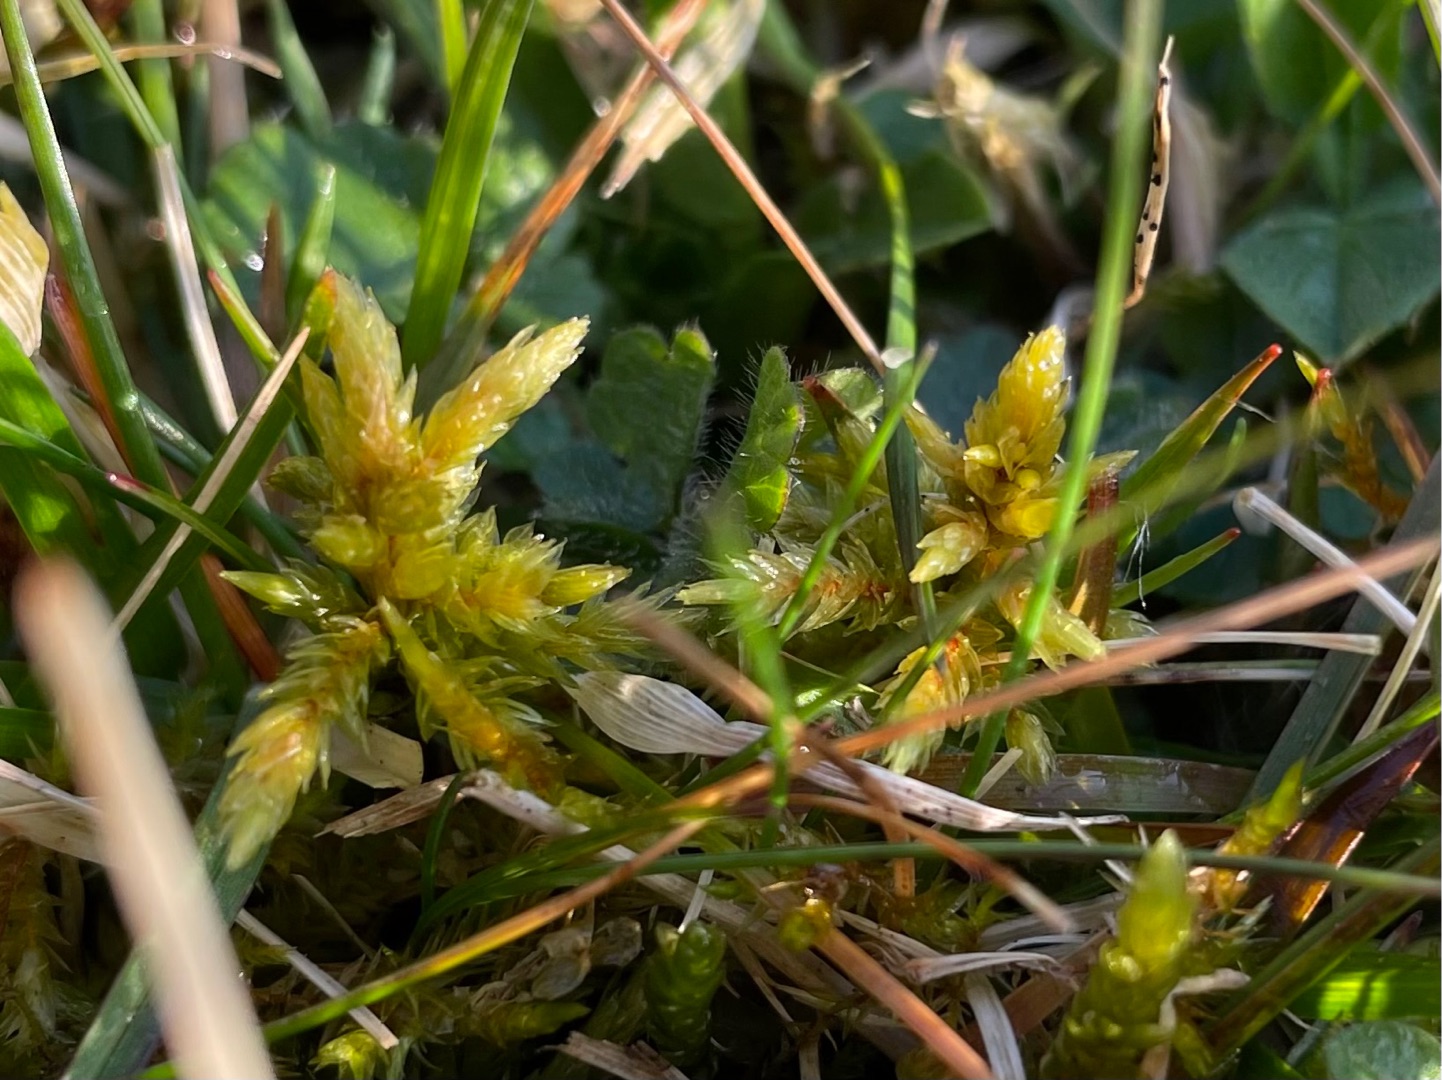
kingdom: Plantae
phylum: Bryophyta
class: Bryopsida
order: Hypnales
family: Climaciaceae
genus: Climacium
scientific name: Climacium dendroides
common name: Stor engkost
